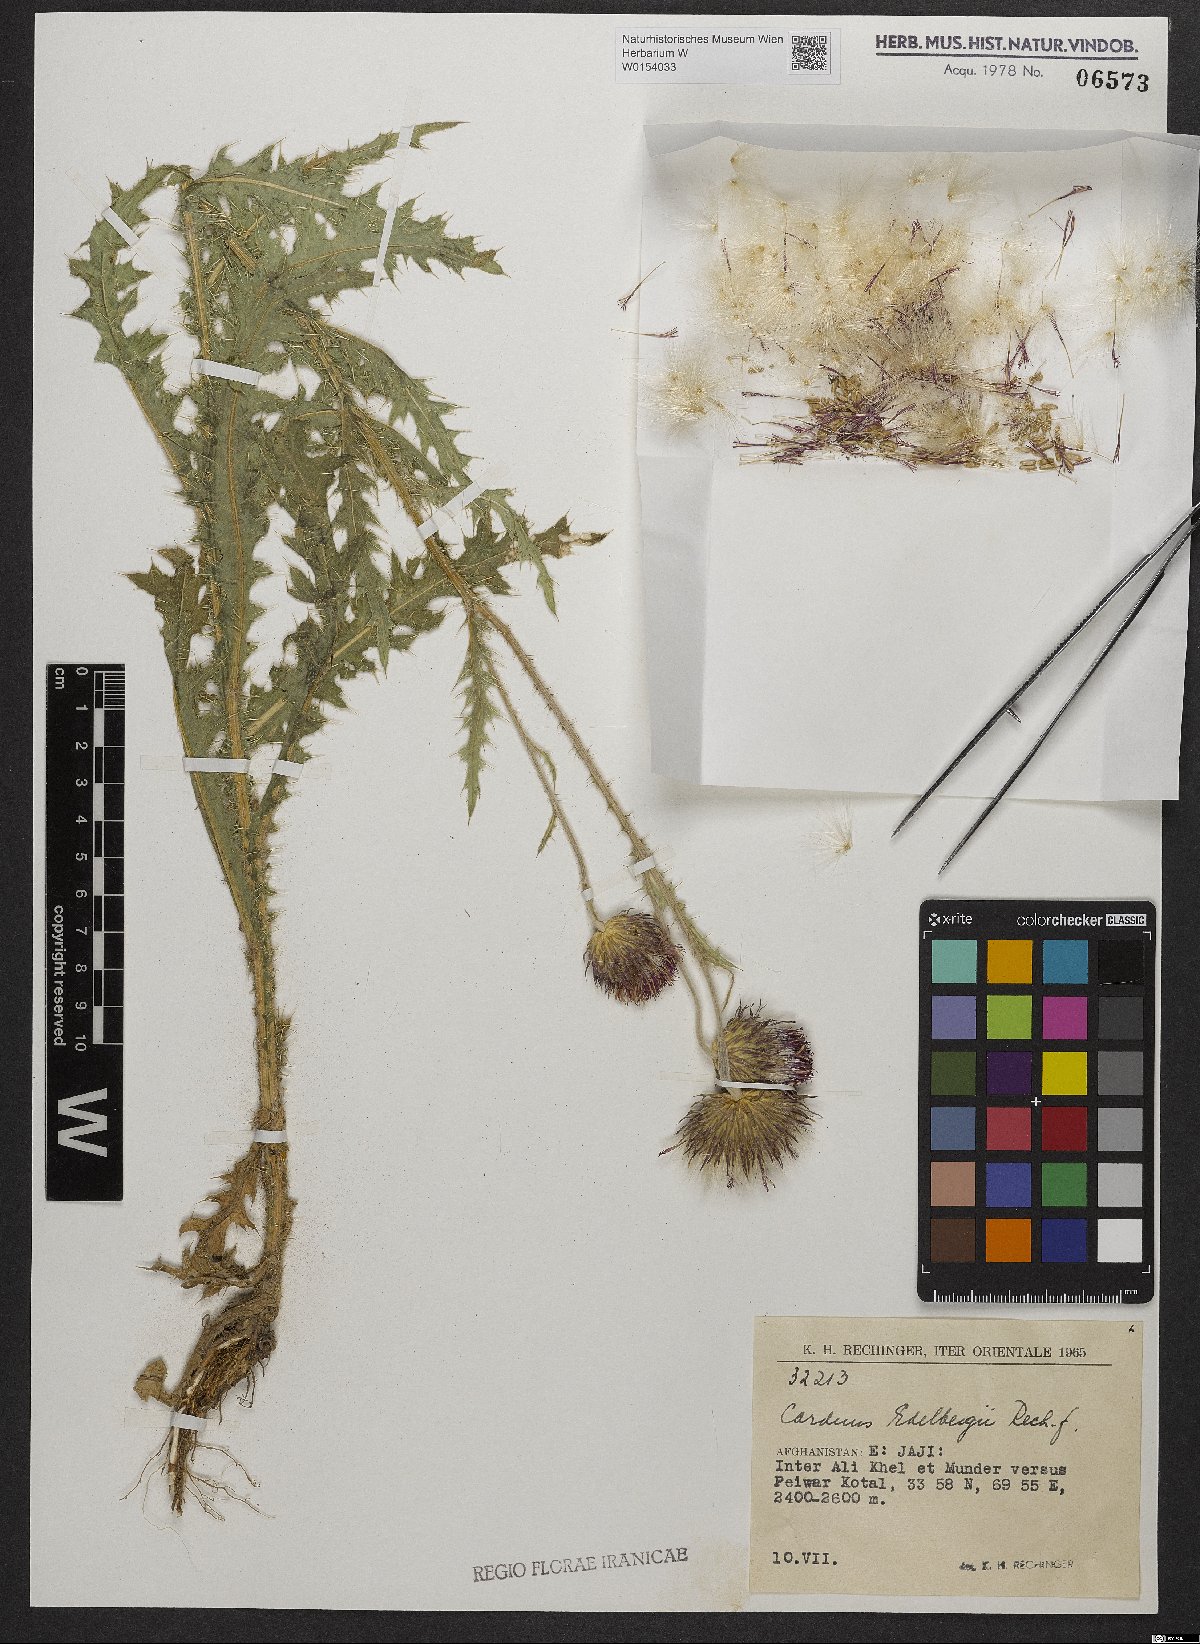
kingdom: Plantae
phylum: Tracheophyta
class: Magnoliopsida
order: Asterales
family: Asteraceae
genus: Carduus
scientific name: Carduus edelbergii
